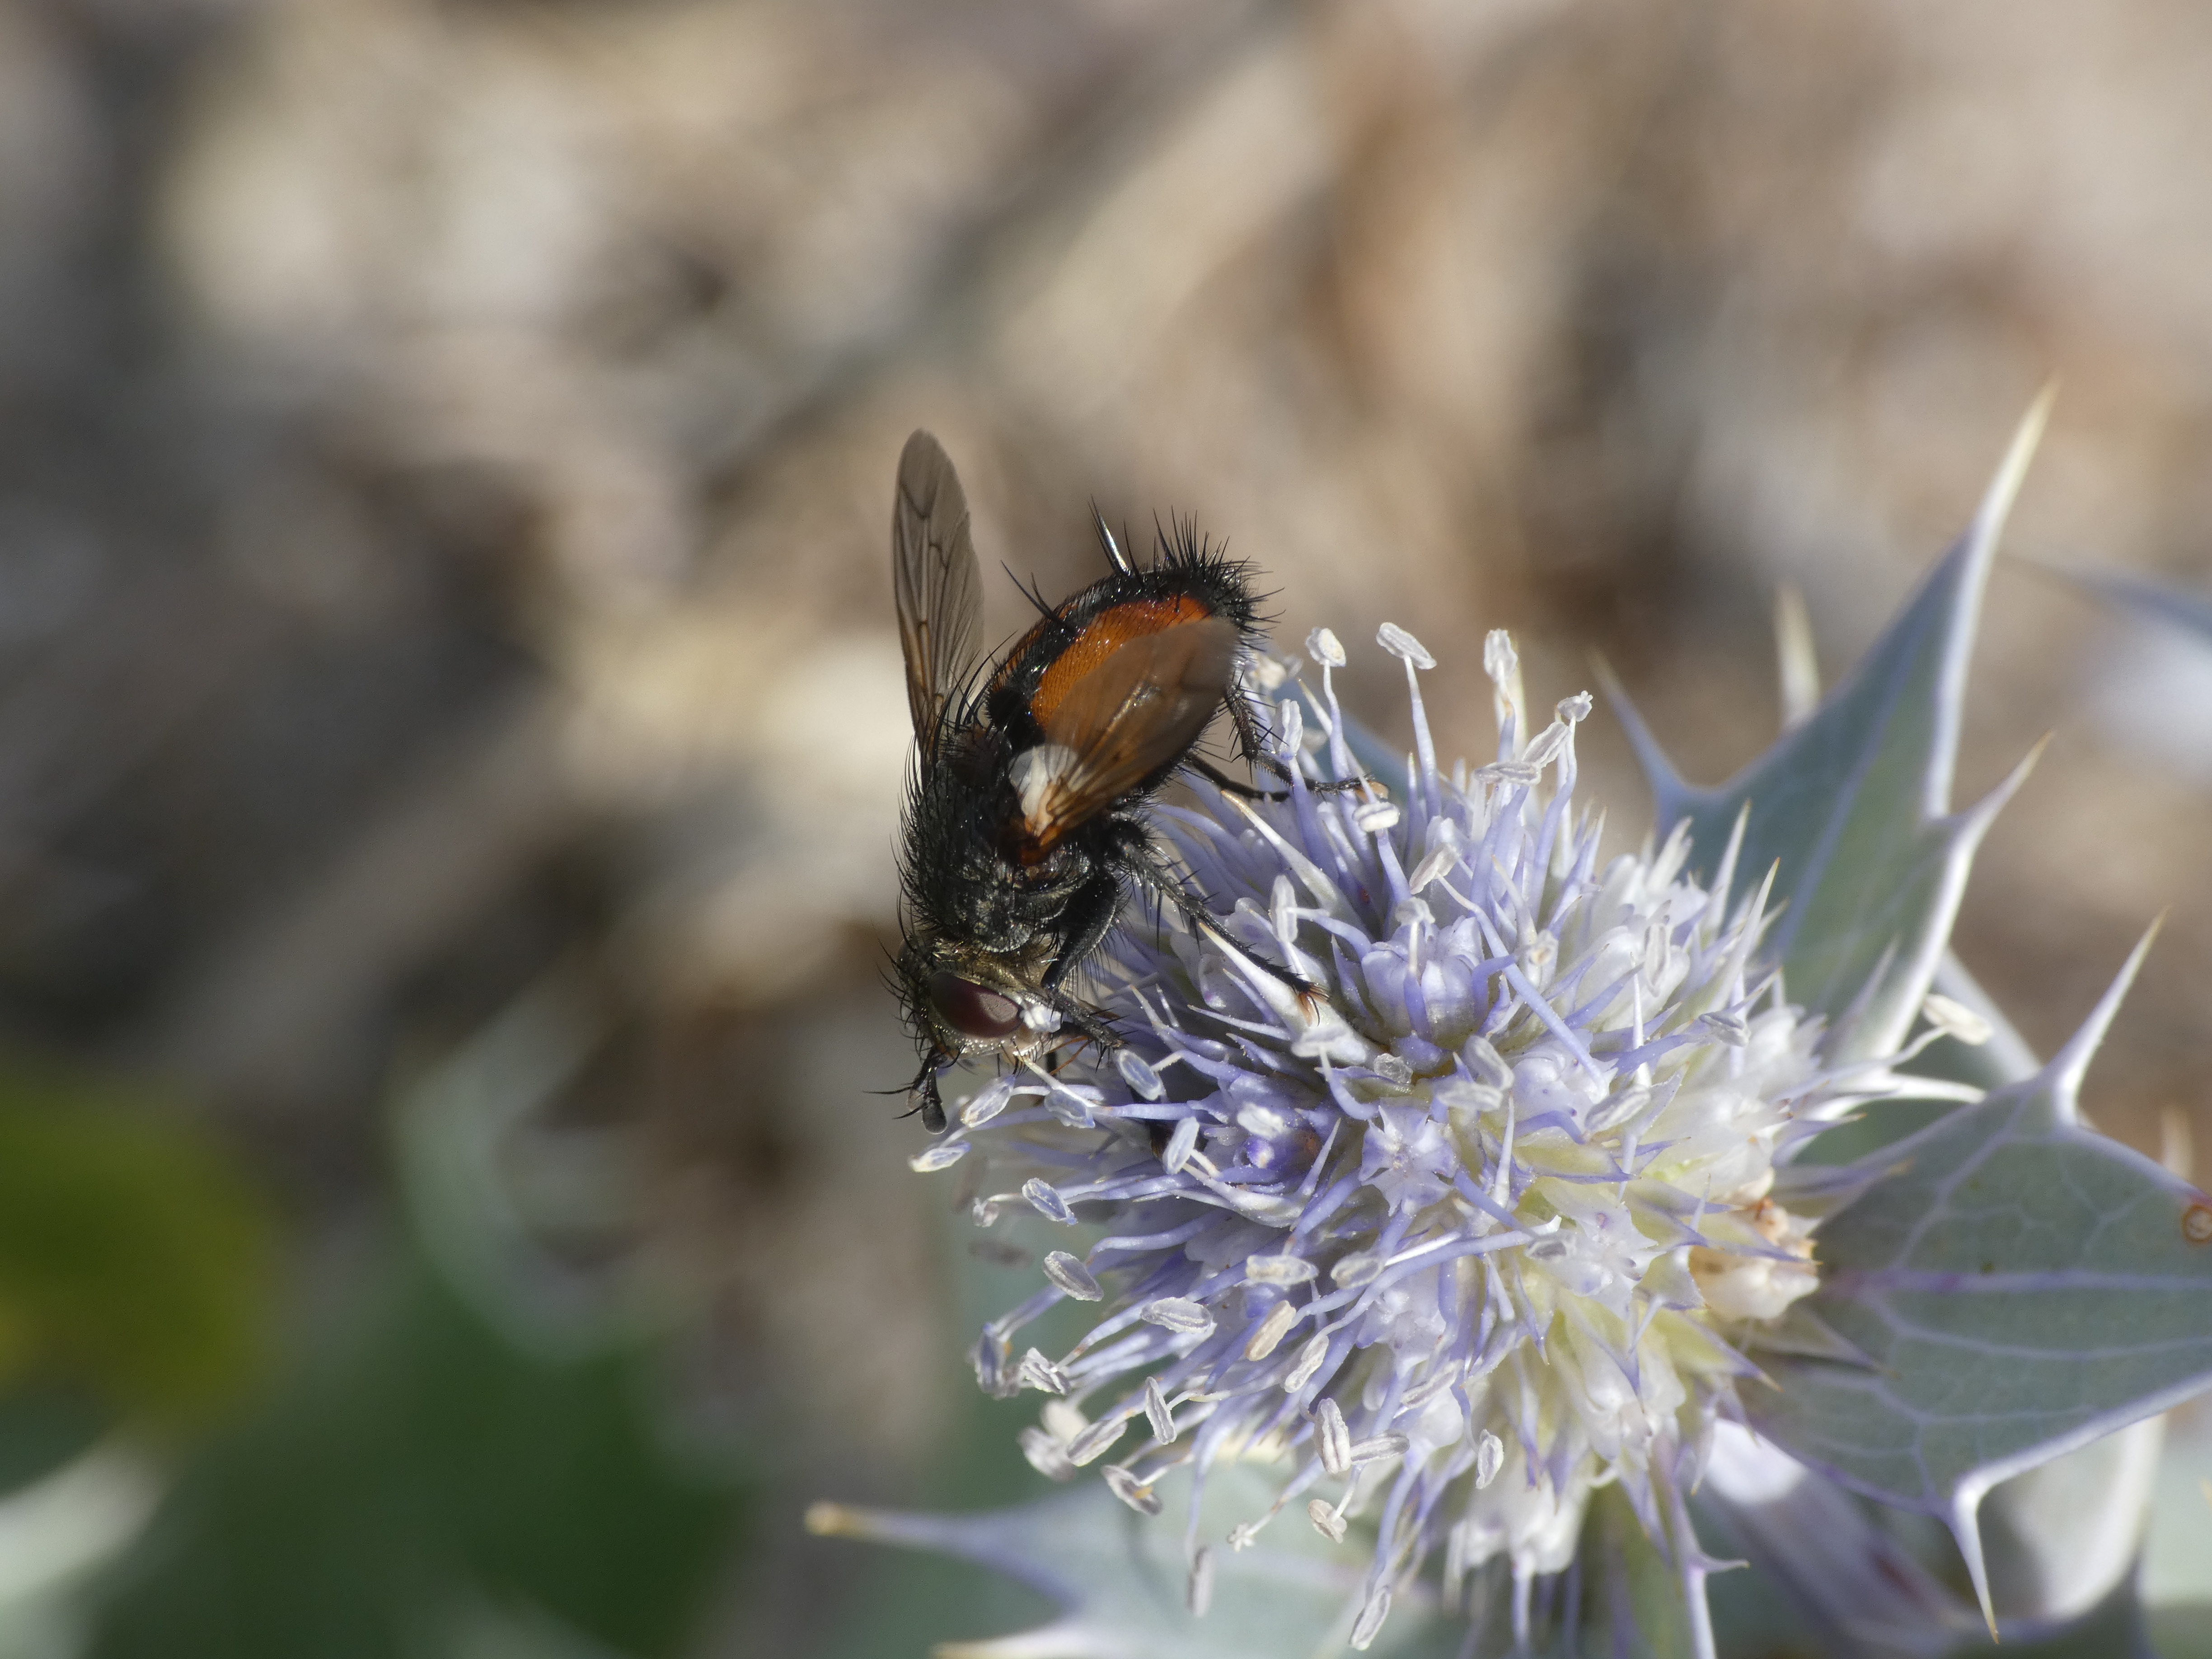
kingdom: Animalia
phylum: Arthropoda
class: Insecta
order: Diptera
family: Tachinidae
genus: Peleteria
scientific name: Peleteria rubescens
